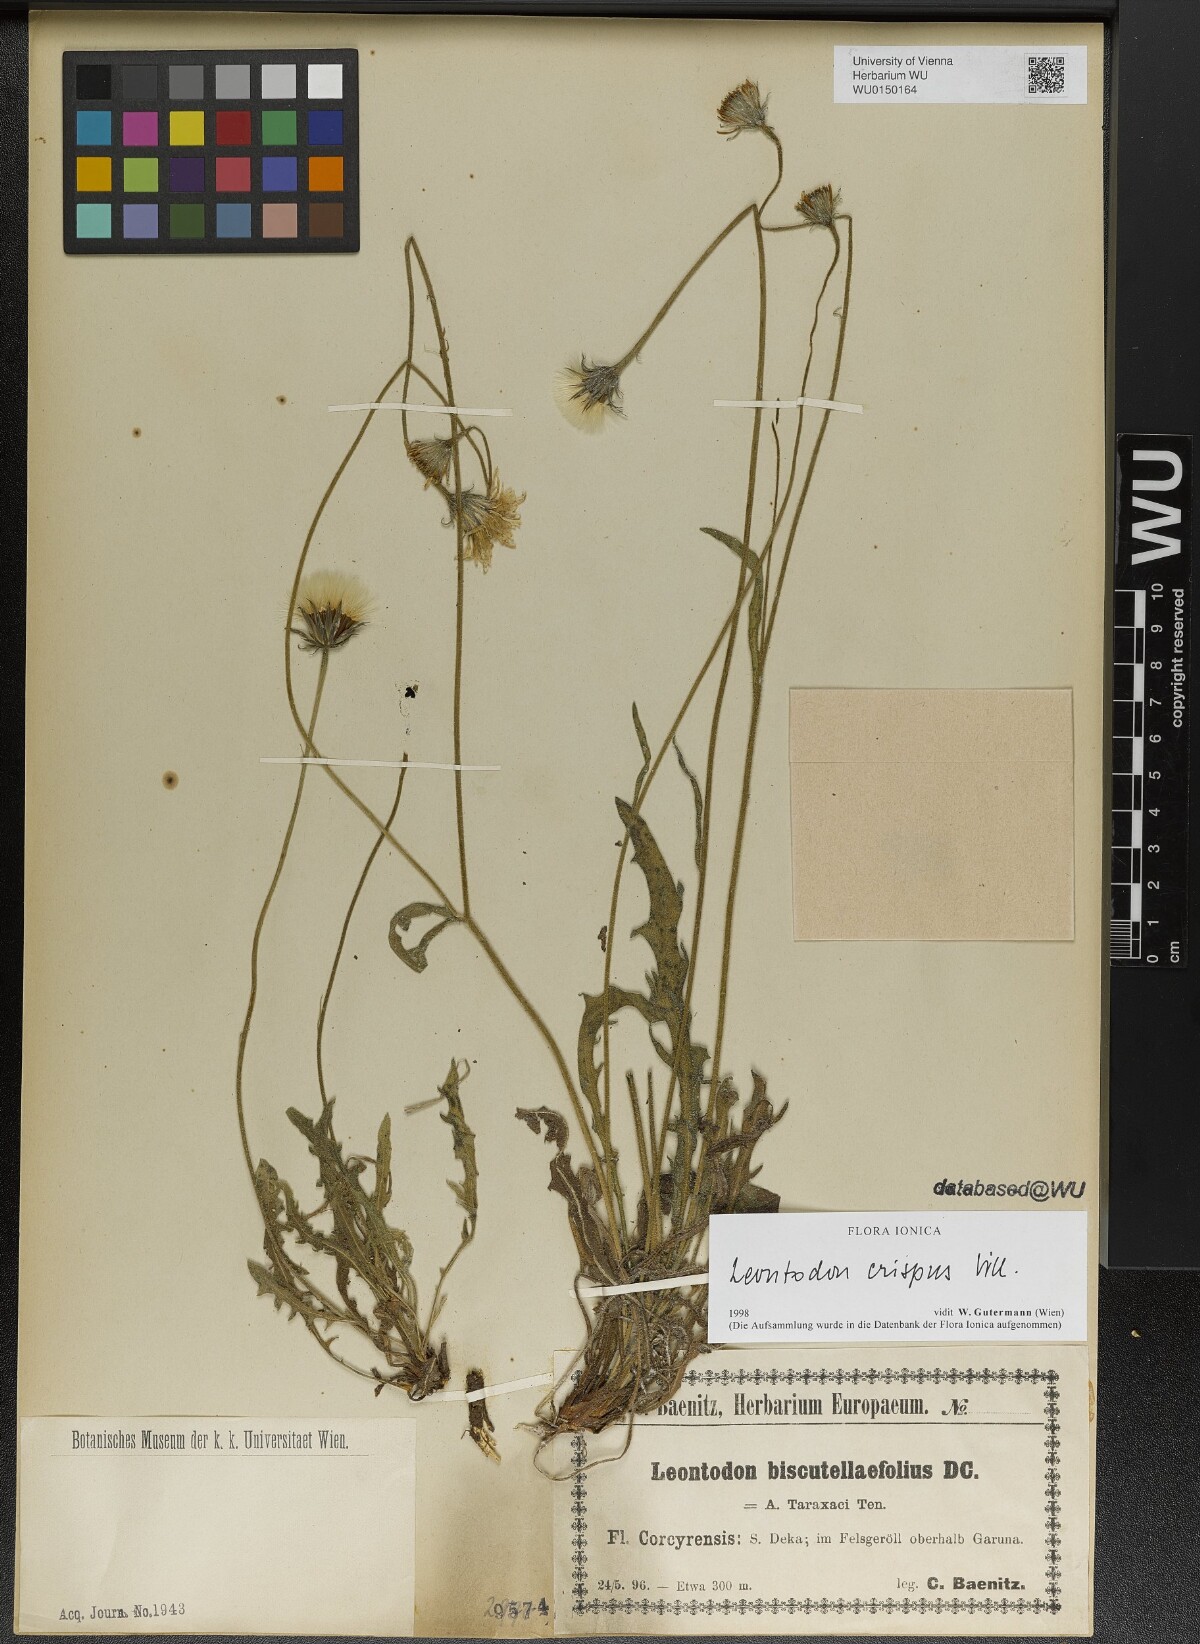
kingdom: Plantae
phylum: Tracheophyta
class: Magnoliopsida
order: Asterales
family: Asteraceae
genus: Leontodon
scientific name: Leontodon crispus
